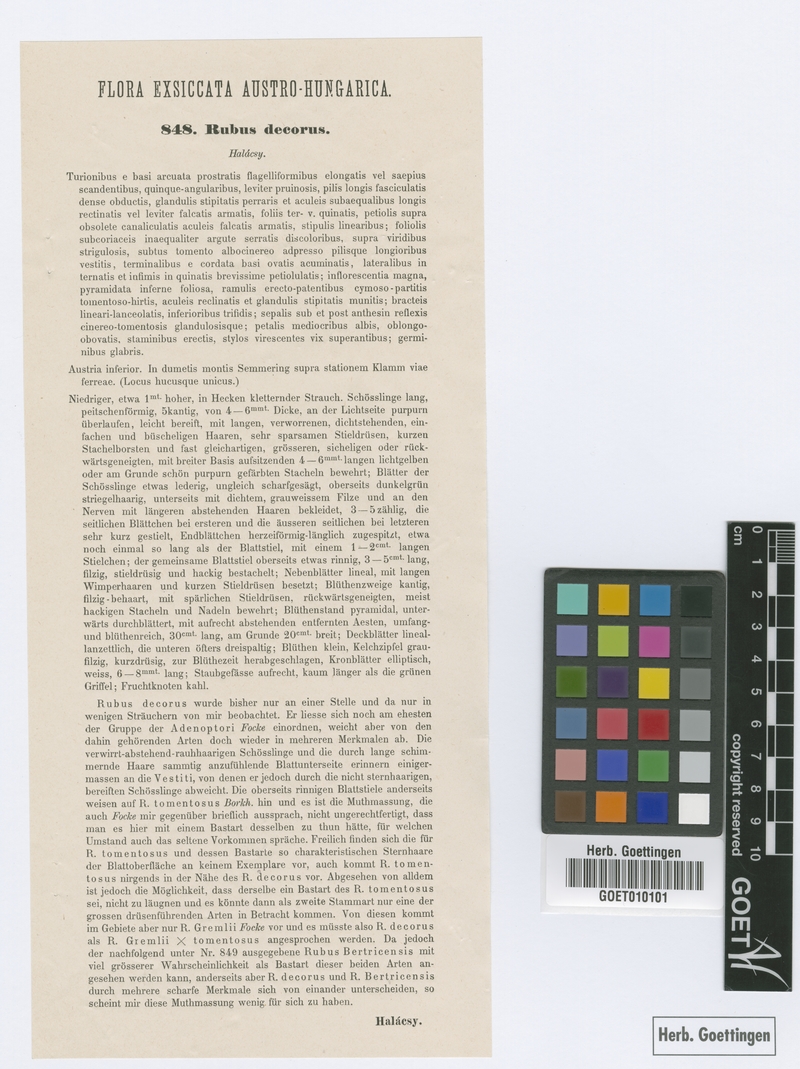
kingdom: Plantae
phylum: Tracheophyta
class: Magnoliopsida
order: Rosales
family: Rosaceae
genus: Rubus
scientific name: Rubus decorus
